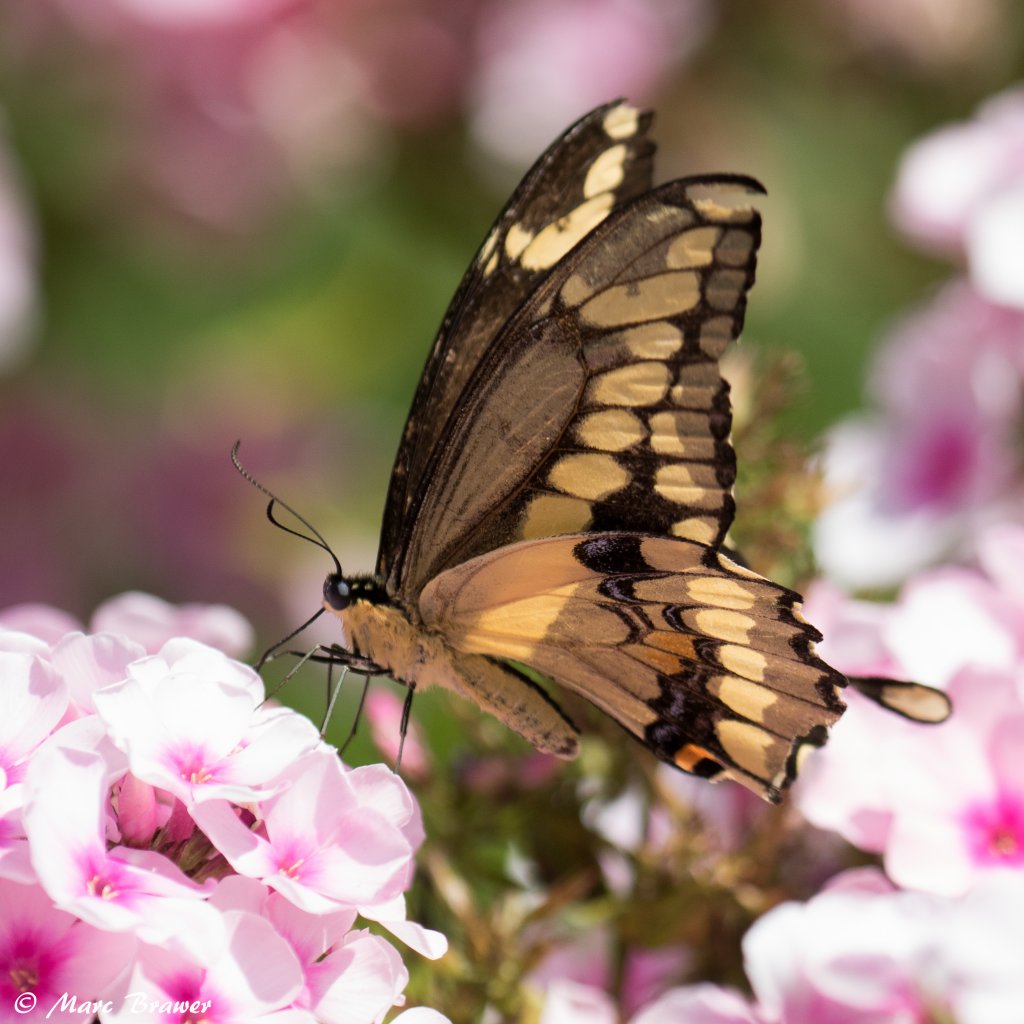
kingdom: Animalia
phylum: Arthropoda
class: Insecta
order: Lepidoptera
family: Papilionidae
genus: Papilio
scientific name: Papilio cresphontes
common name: Eastern Giant Swallowtail
